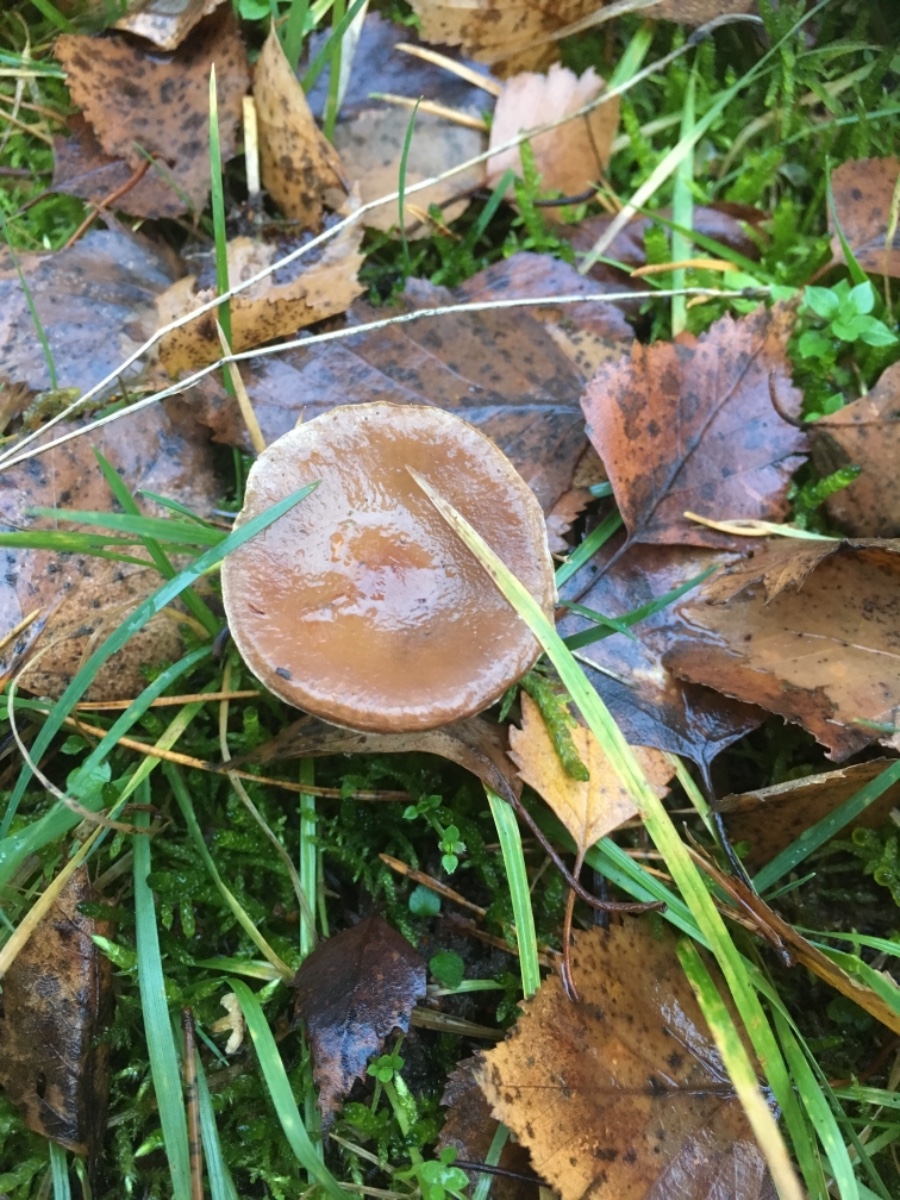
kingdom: Fungi
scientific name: Fungi
